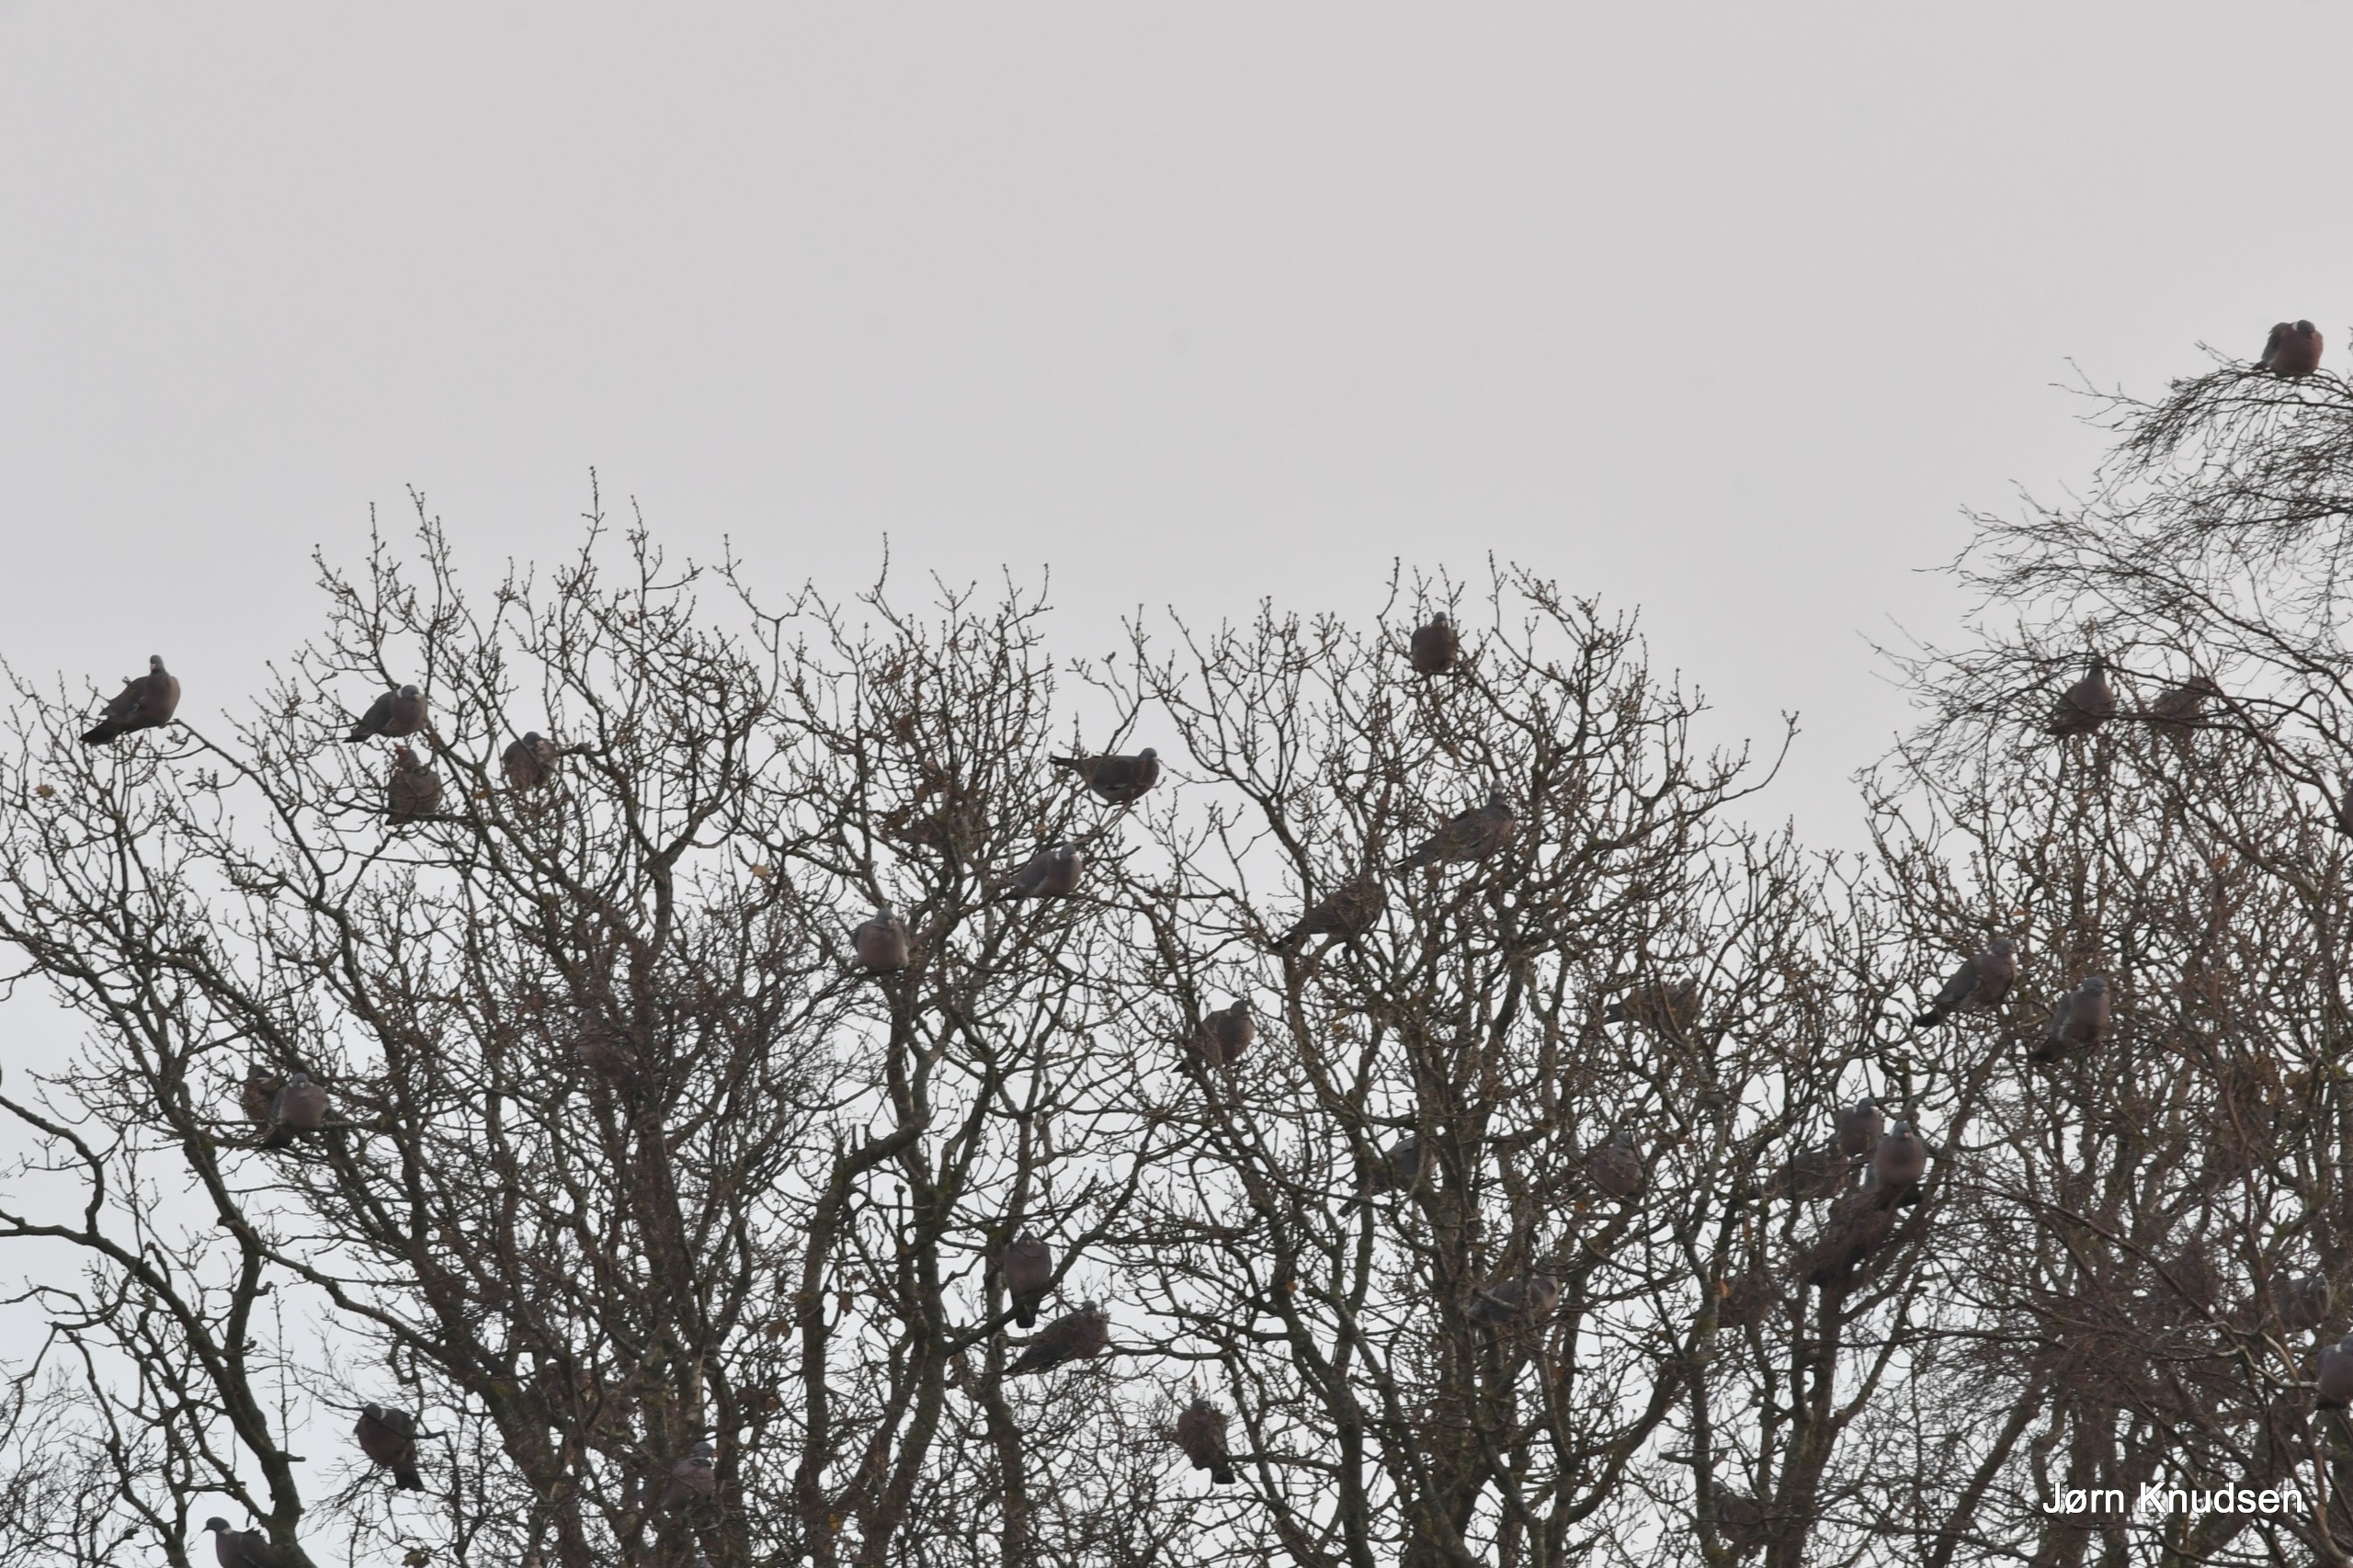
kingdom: Animalia
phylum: Chordata
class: Aves
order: Columbiformes
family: Columbidae
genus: Columba
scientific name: Columba palumbus
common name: Ringdue
